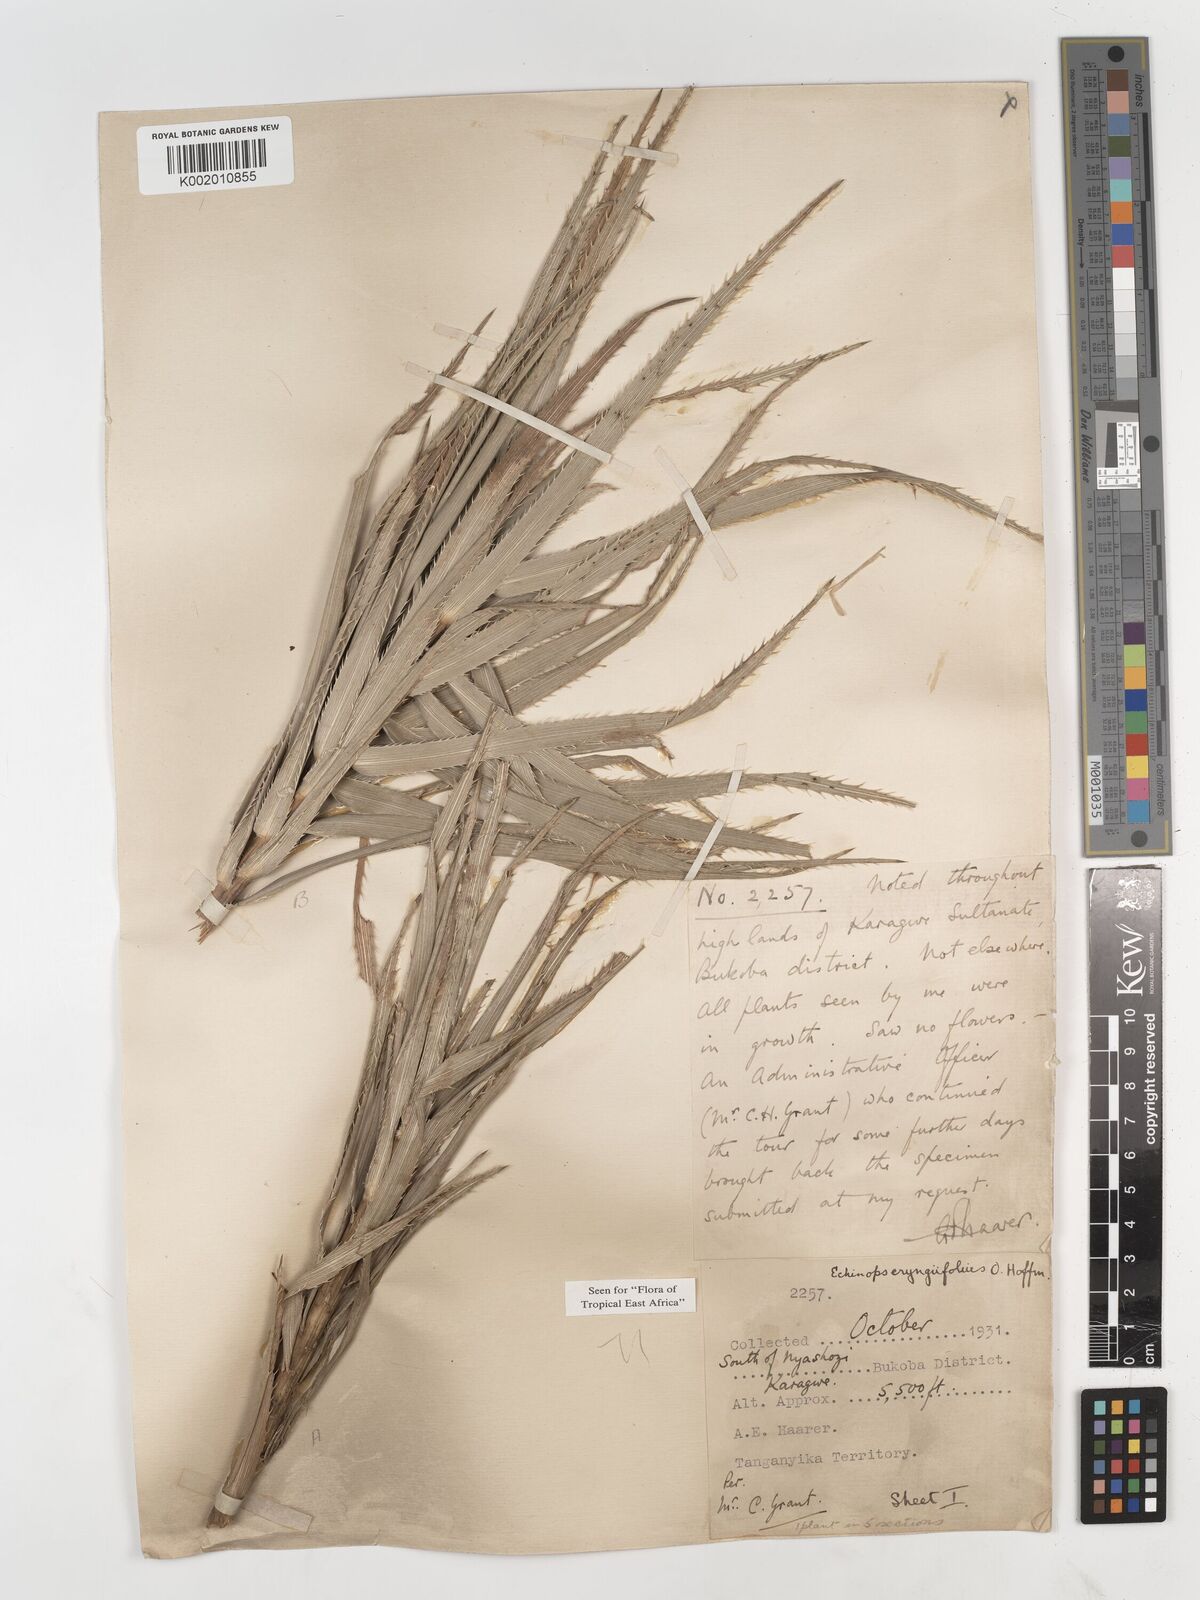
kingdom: Plantae
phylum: Tracheophyta
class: Magnoliopsida
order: Asterales
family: Asteraceae
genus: Echinops
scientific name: Echinops eryngiifolius
